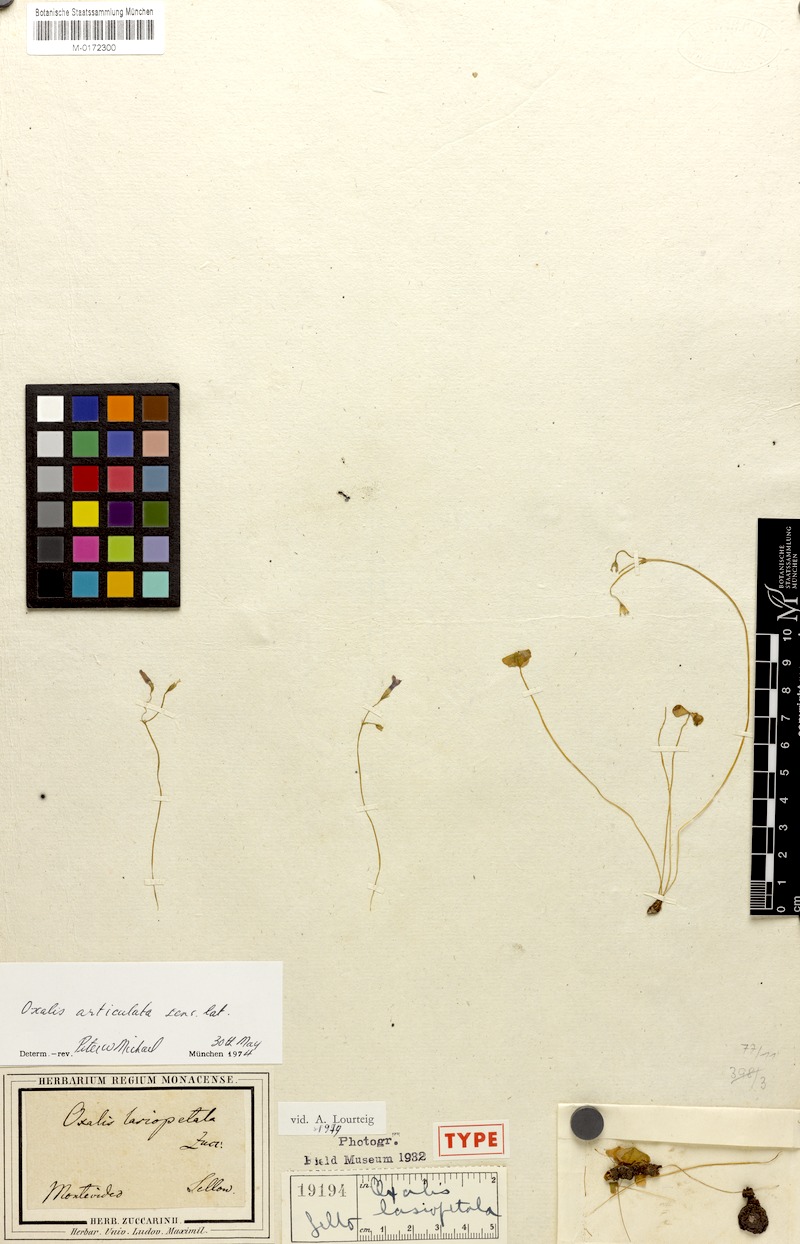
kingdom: Plantae
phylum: Tracheophyta
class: Magnoliopsida
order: Oxalidales
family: Oxalidaceae
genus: Oxalis
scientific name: Oxalis lasiopetala
